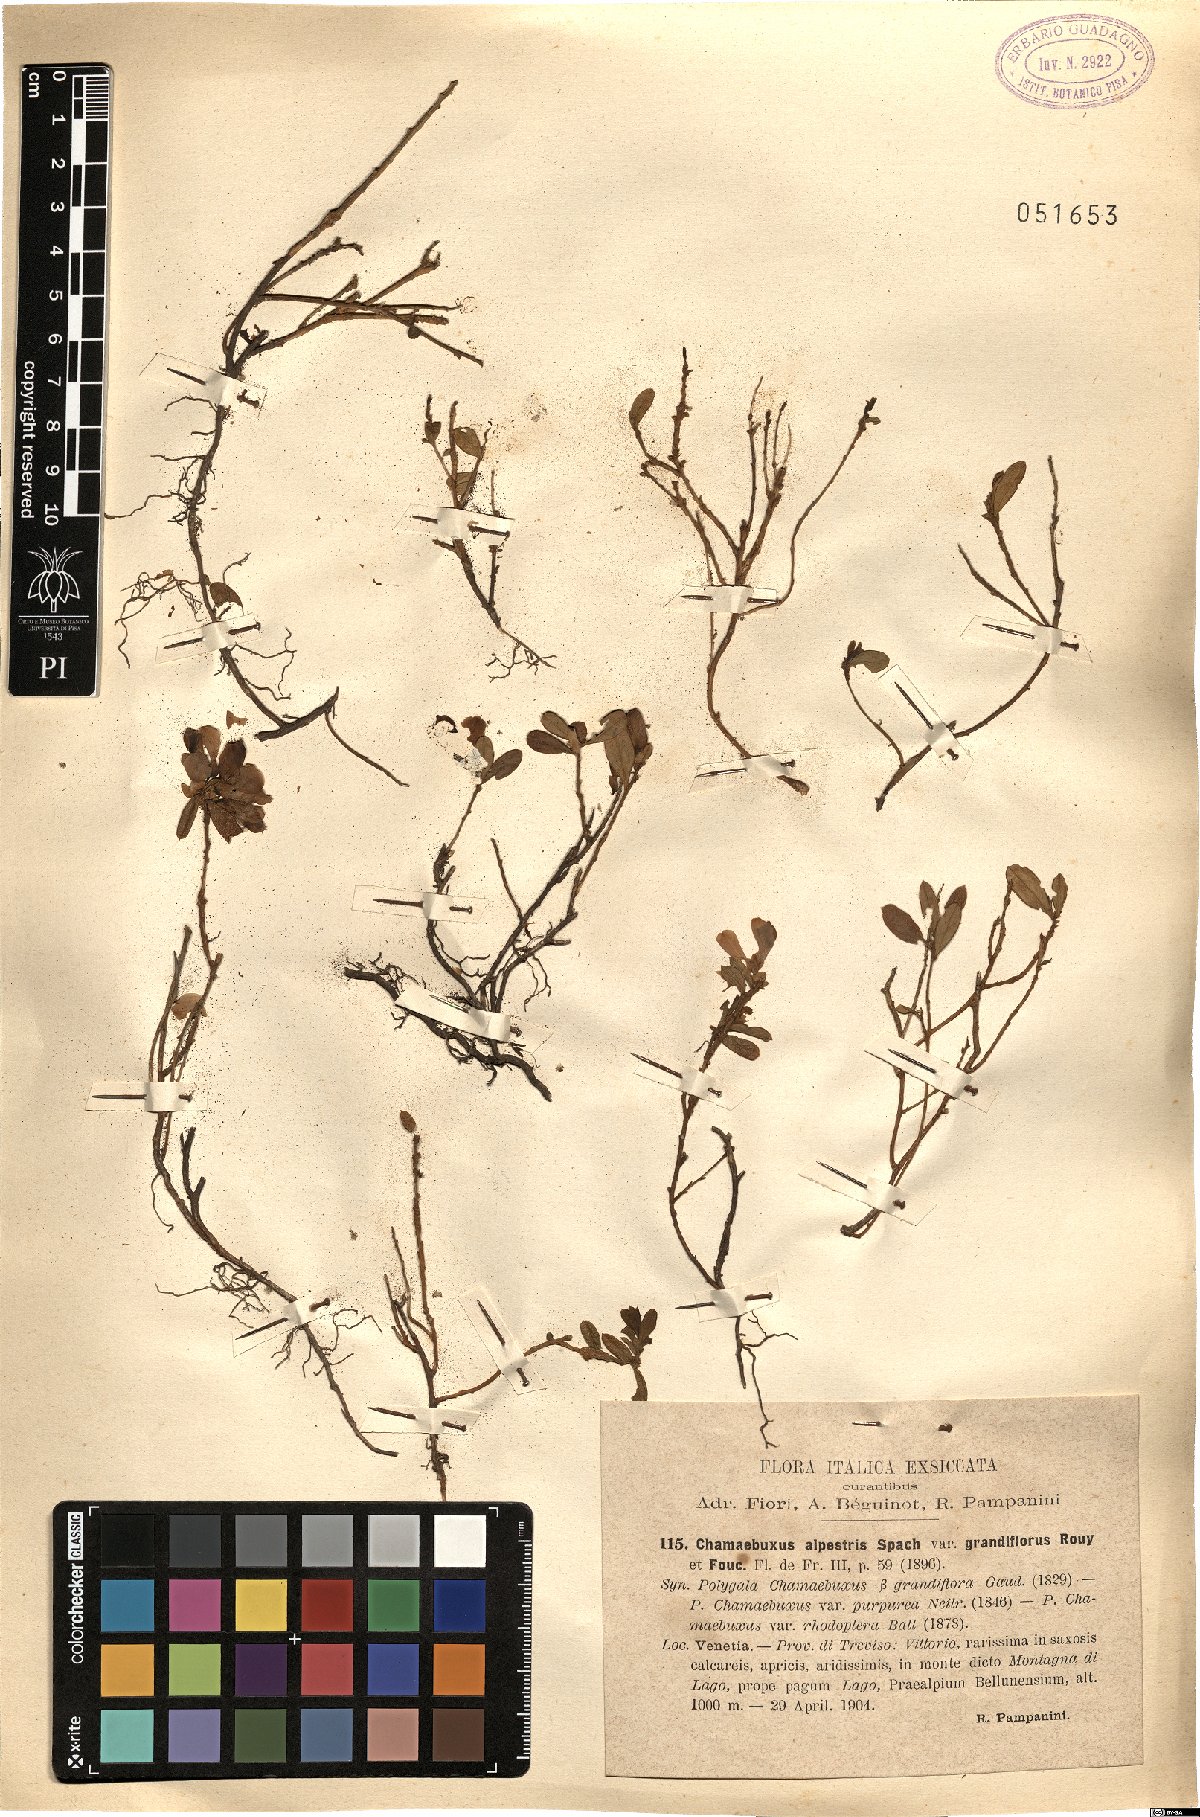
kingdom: Plantae
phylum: Tracheophyta
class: Magnoliopsida
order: Fabales
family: Polygalaceae
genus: Polygaloides
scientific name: Polygaloides chamaebuxus
